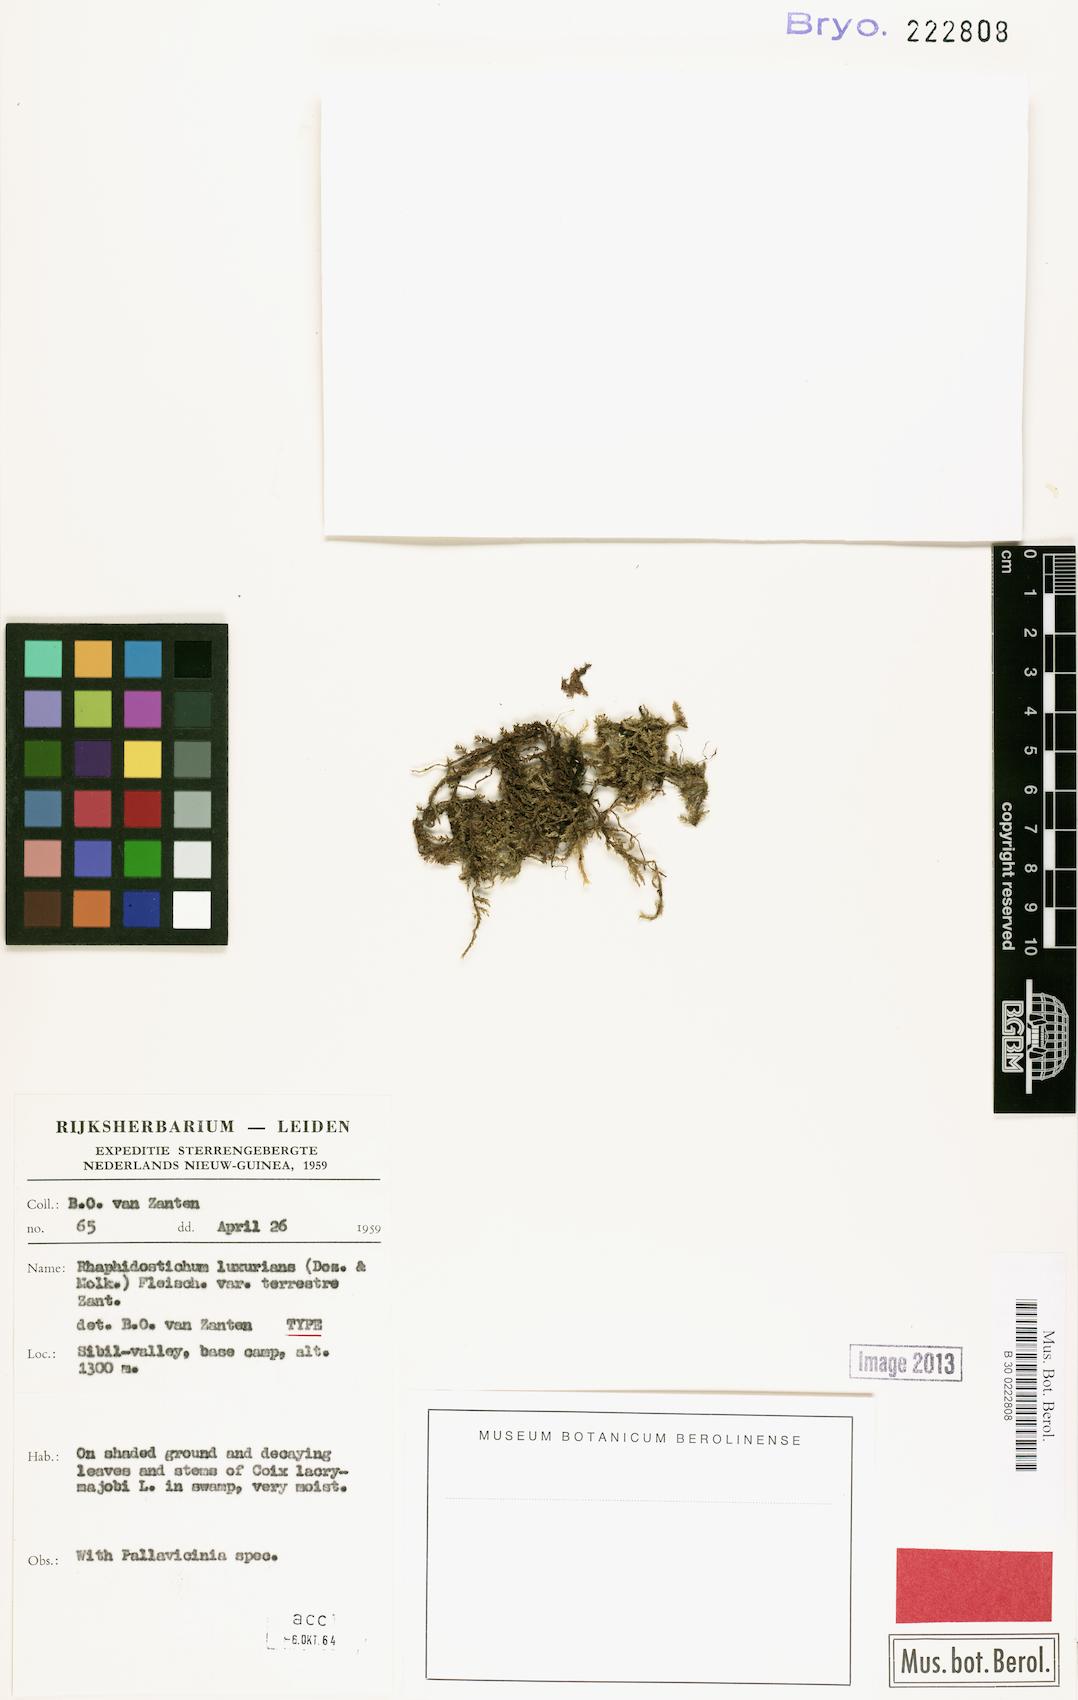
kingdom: Plantae
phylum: Bryophyta
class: Bryopsida
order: Hypnales
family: Sematophyllaceae
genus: Papillidiopsis
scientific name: Papillidiopsis luxurians
